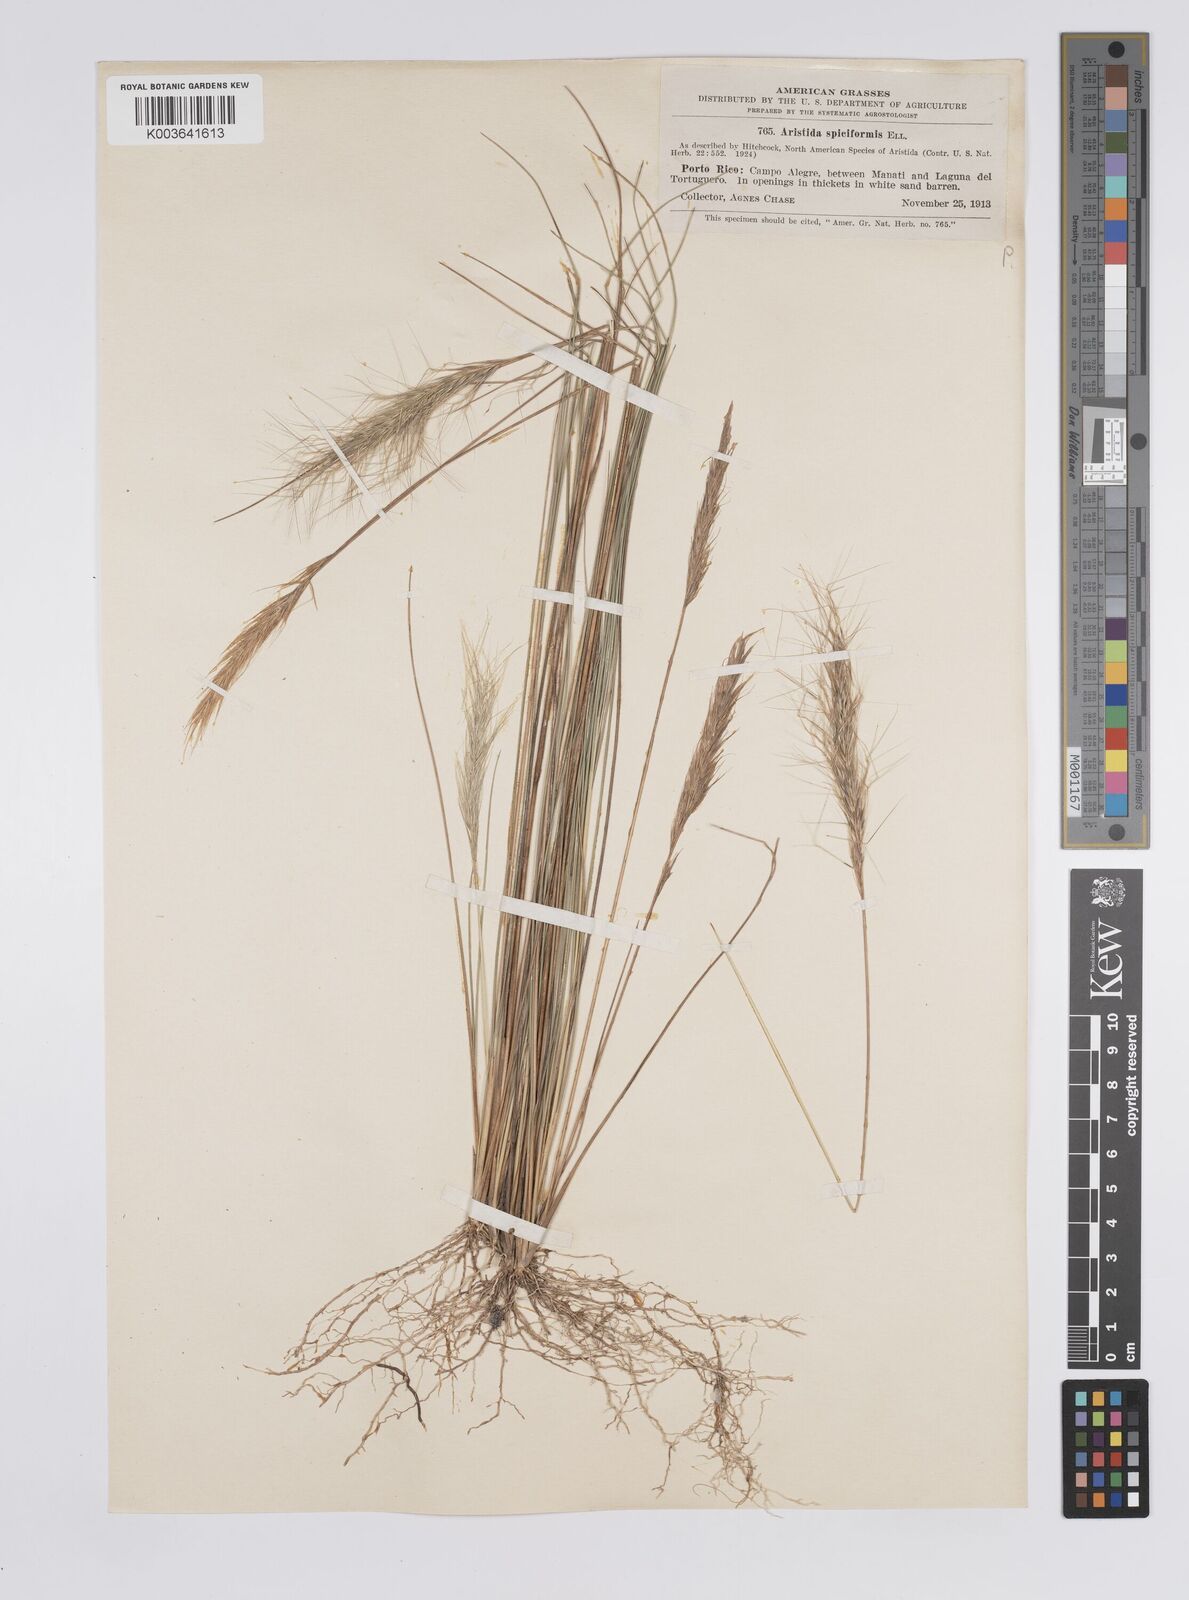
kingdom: Plantae
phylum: Tracheophyta
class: Liliopsida
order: Poales
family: Poaceae
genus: Aristida
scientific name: Aristida spiciformis
